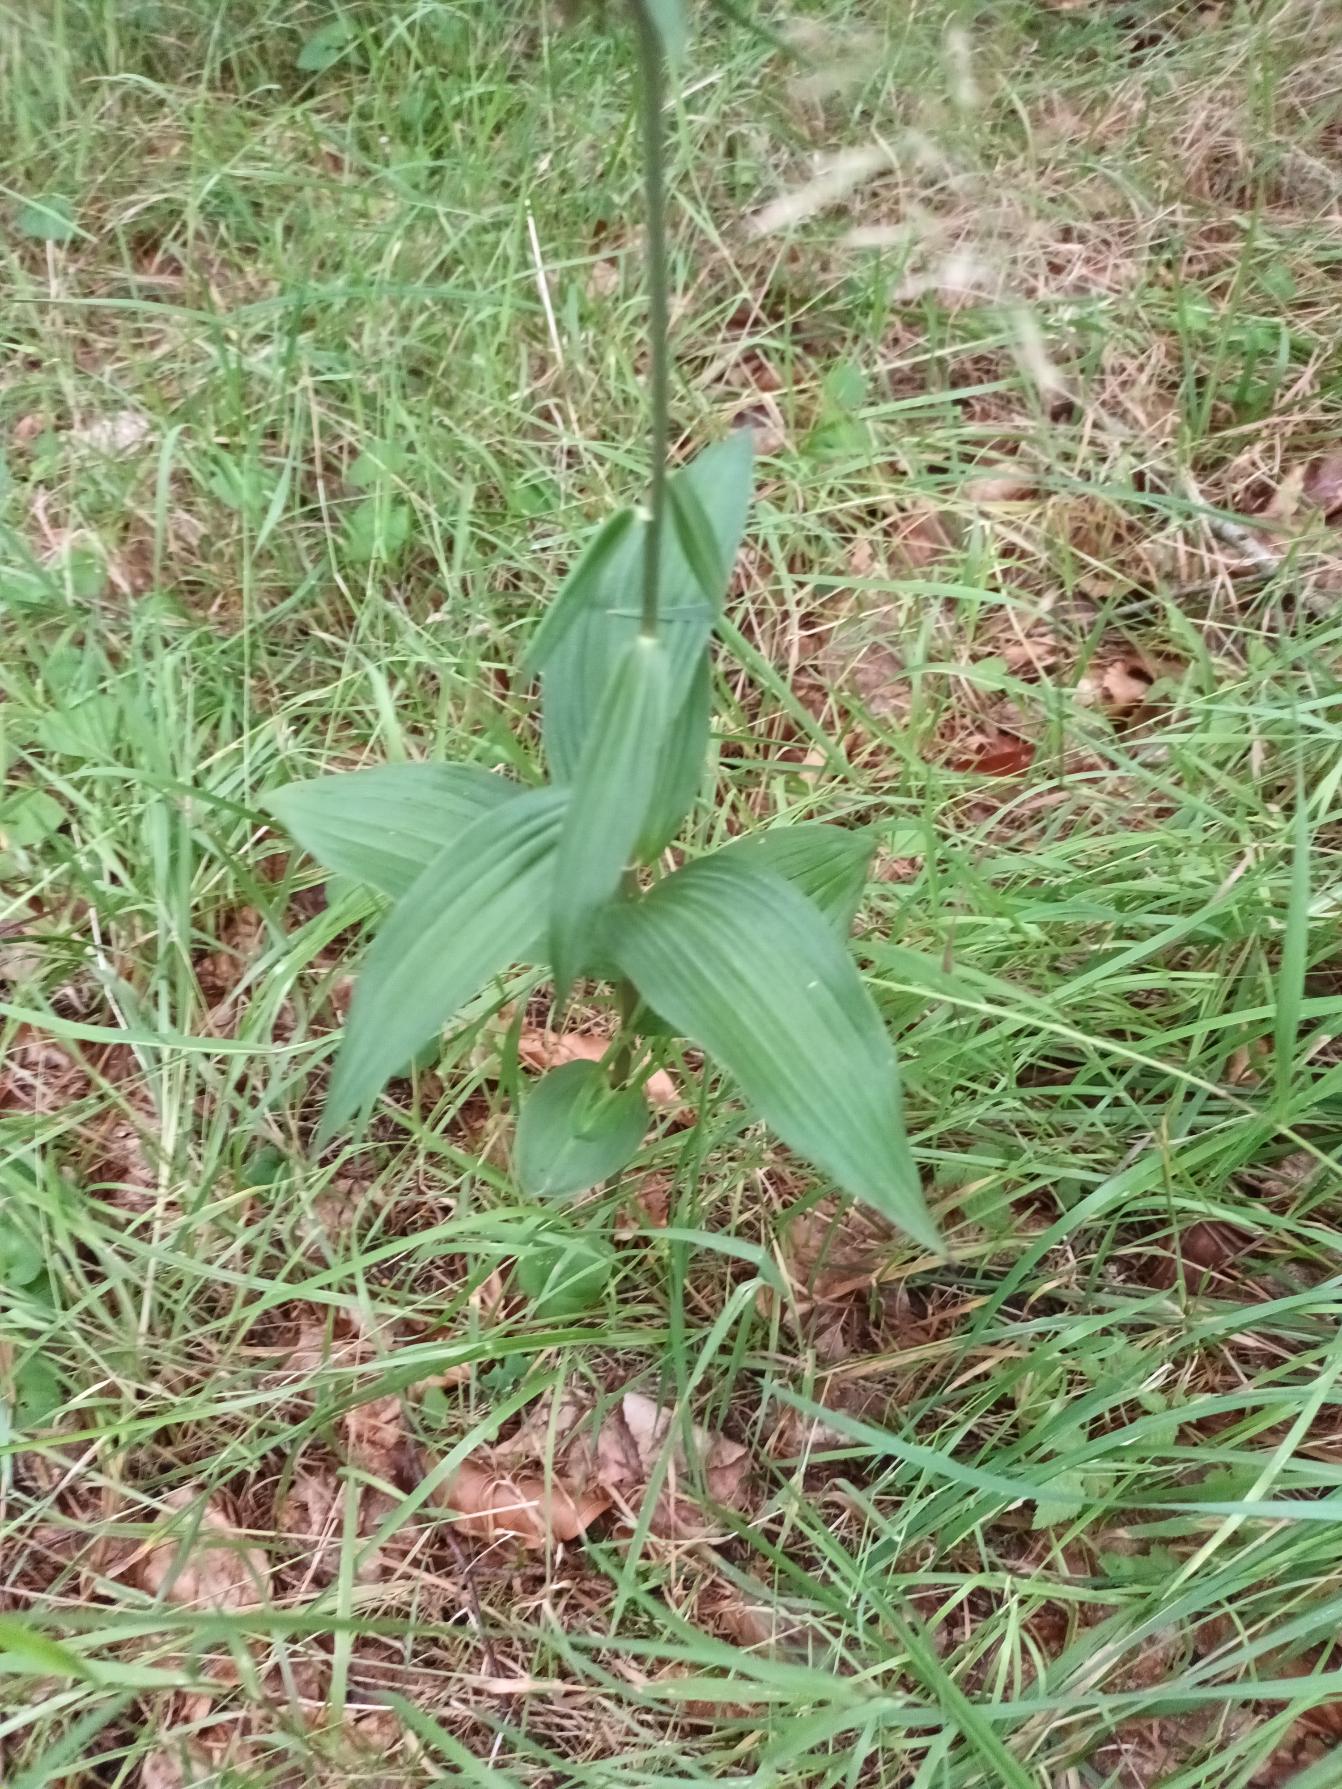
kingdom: Plantae
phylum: Tracheophyta
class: Liliopsida
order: Asparagales
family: Orchidaceae
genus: Epipactis
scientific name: Epipactis helleborine
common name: Skov-hullæbe
